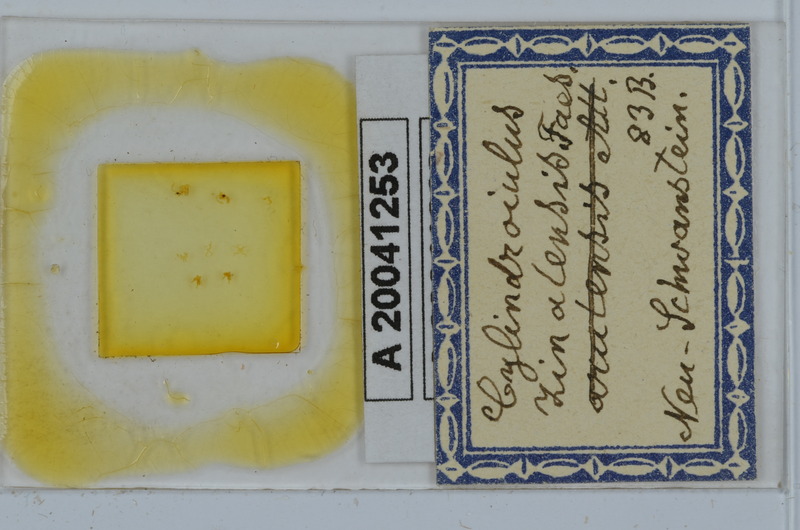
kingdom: Animalia
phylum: Arthropoda
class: Diplopoda
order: Julida
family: Julidae
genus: Cylindroiulus
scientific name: Cylindroiulus zinalensis
